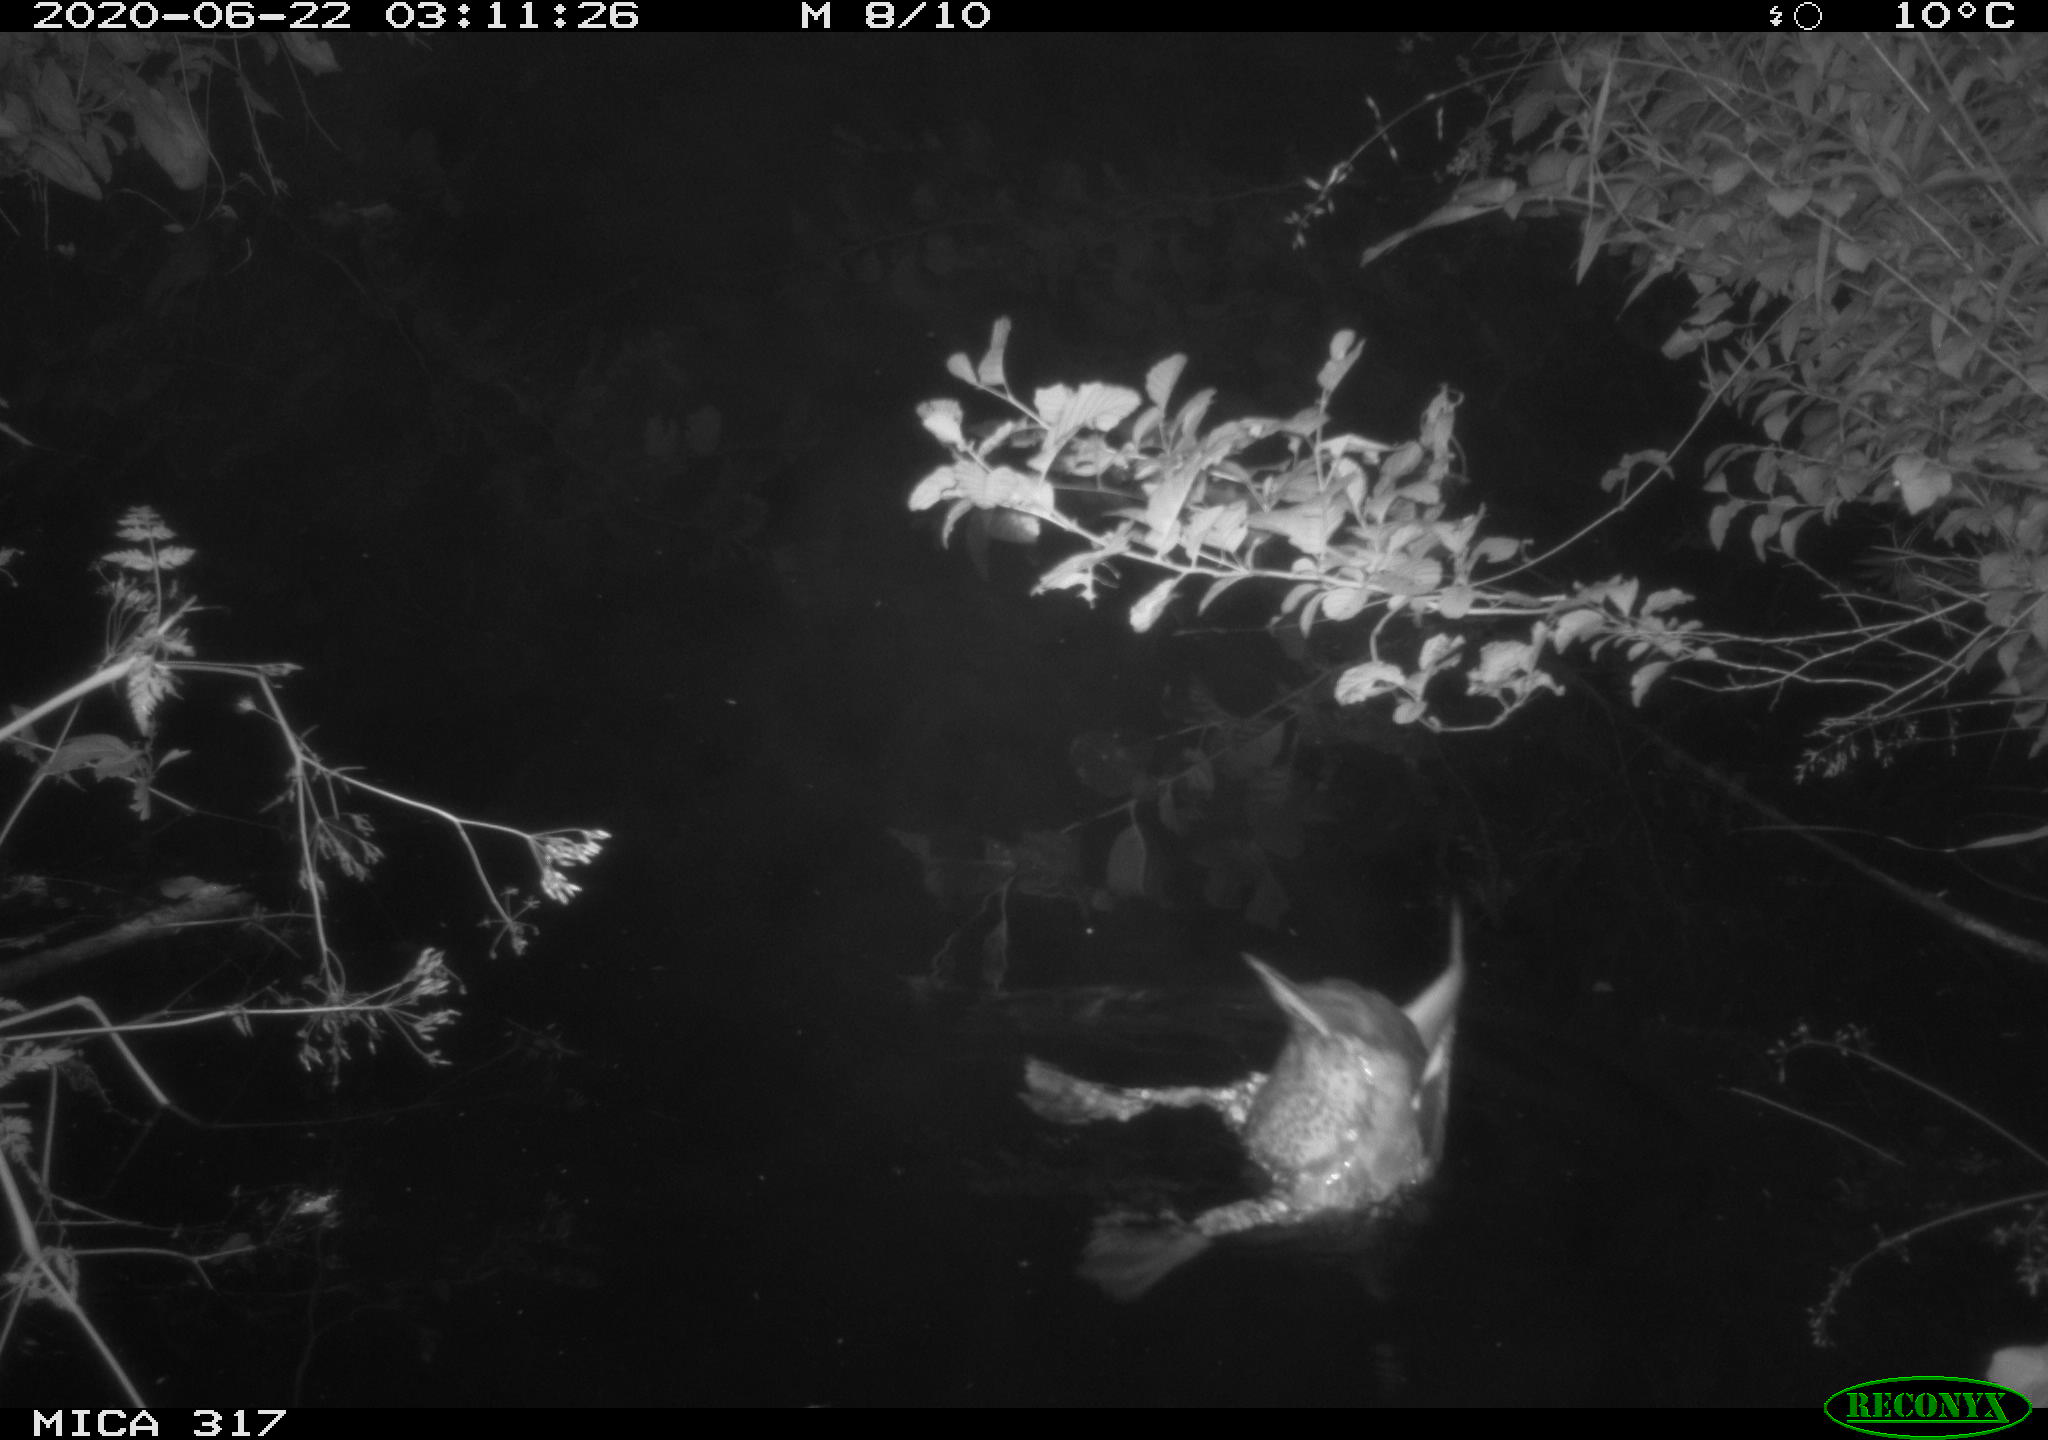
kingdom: Animalia
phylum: Chordata
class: Aves
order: Anseriformes
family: Anatidae
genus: Anas
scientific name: Anas platyrhynchos
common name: Mallard
